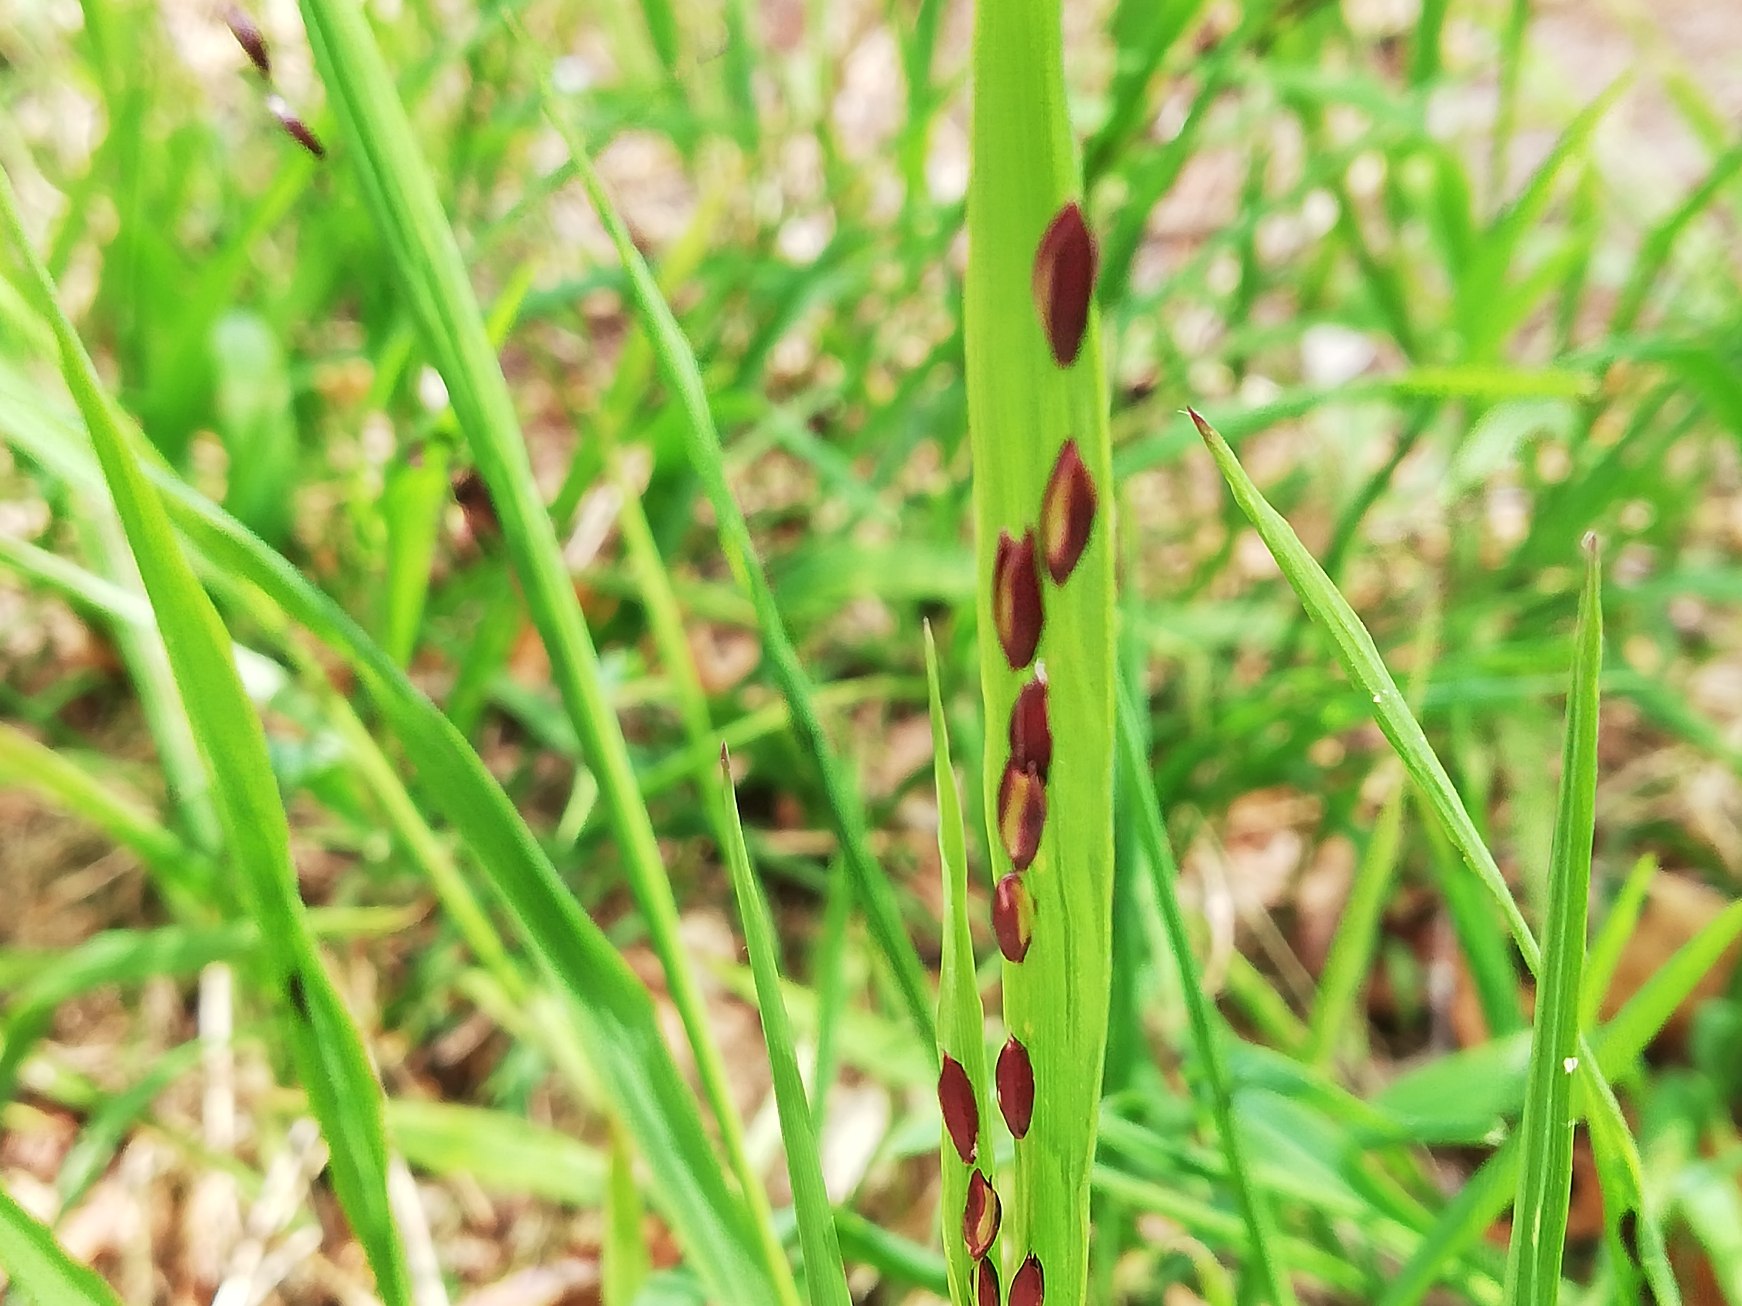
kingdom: Plantae
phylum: Tracheophyta
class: Liliopsida
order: Poales
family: Poaceae
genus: Melica
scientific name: Melica uniflora
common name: Enblomstret flitteraks
